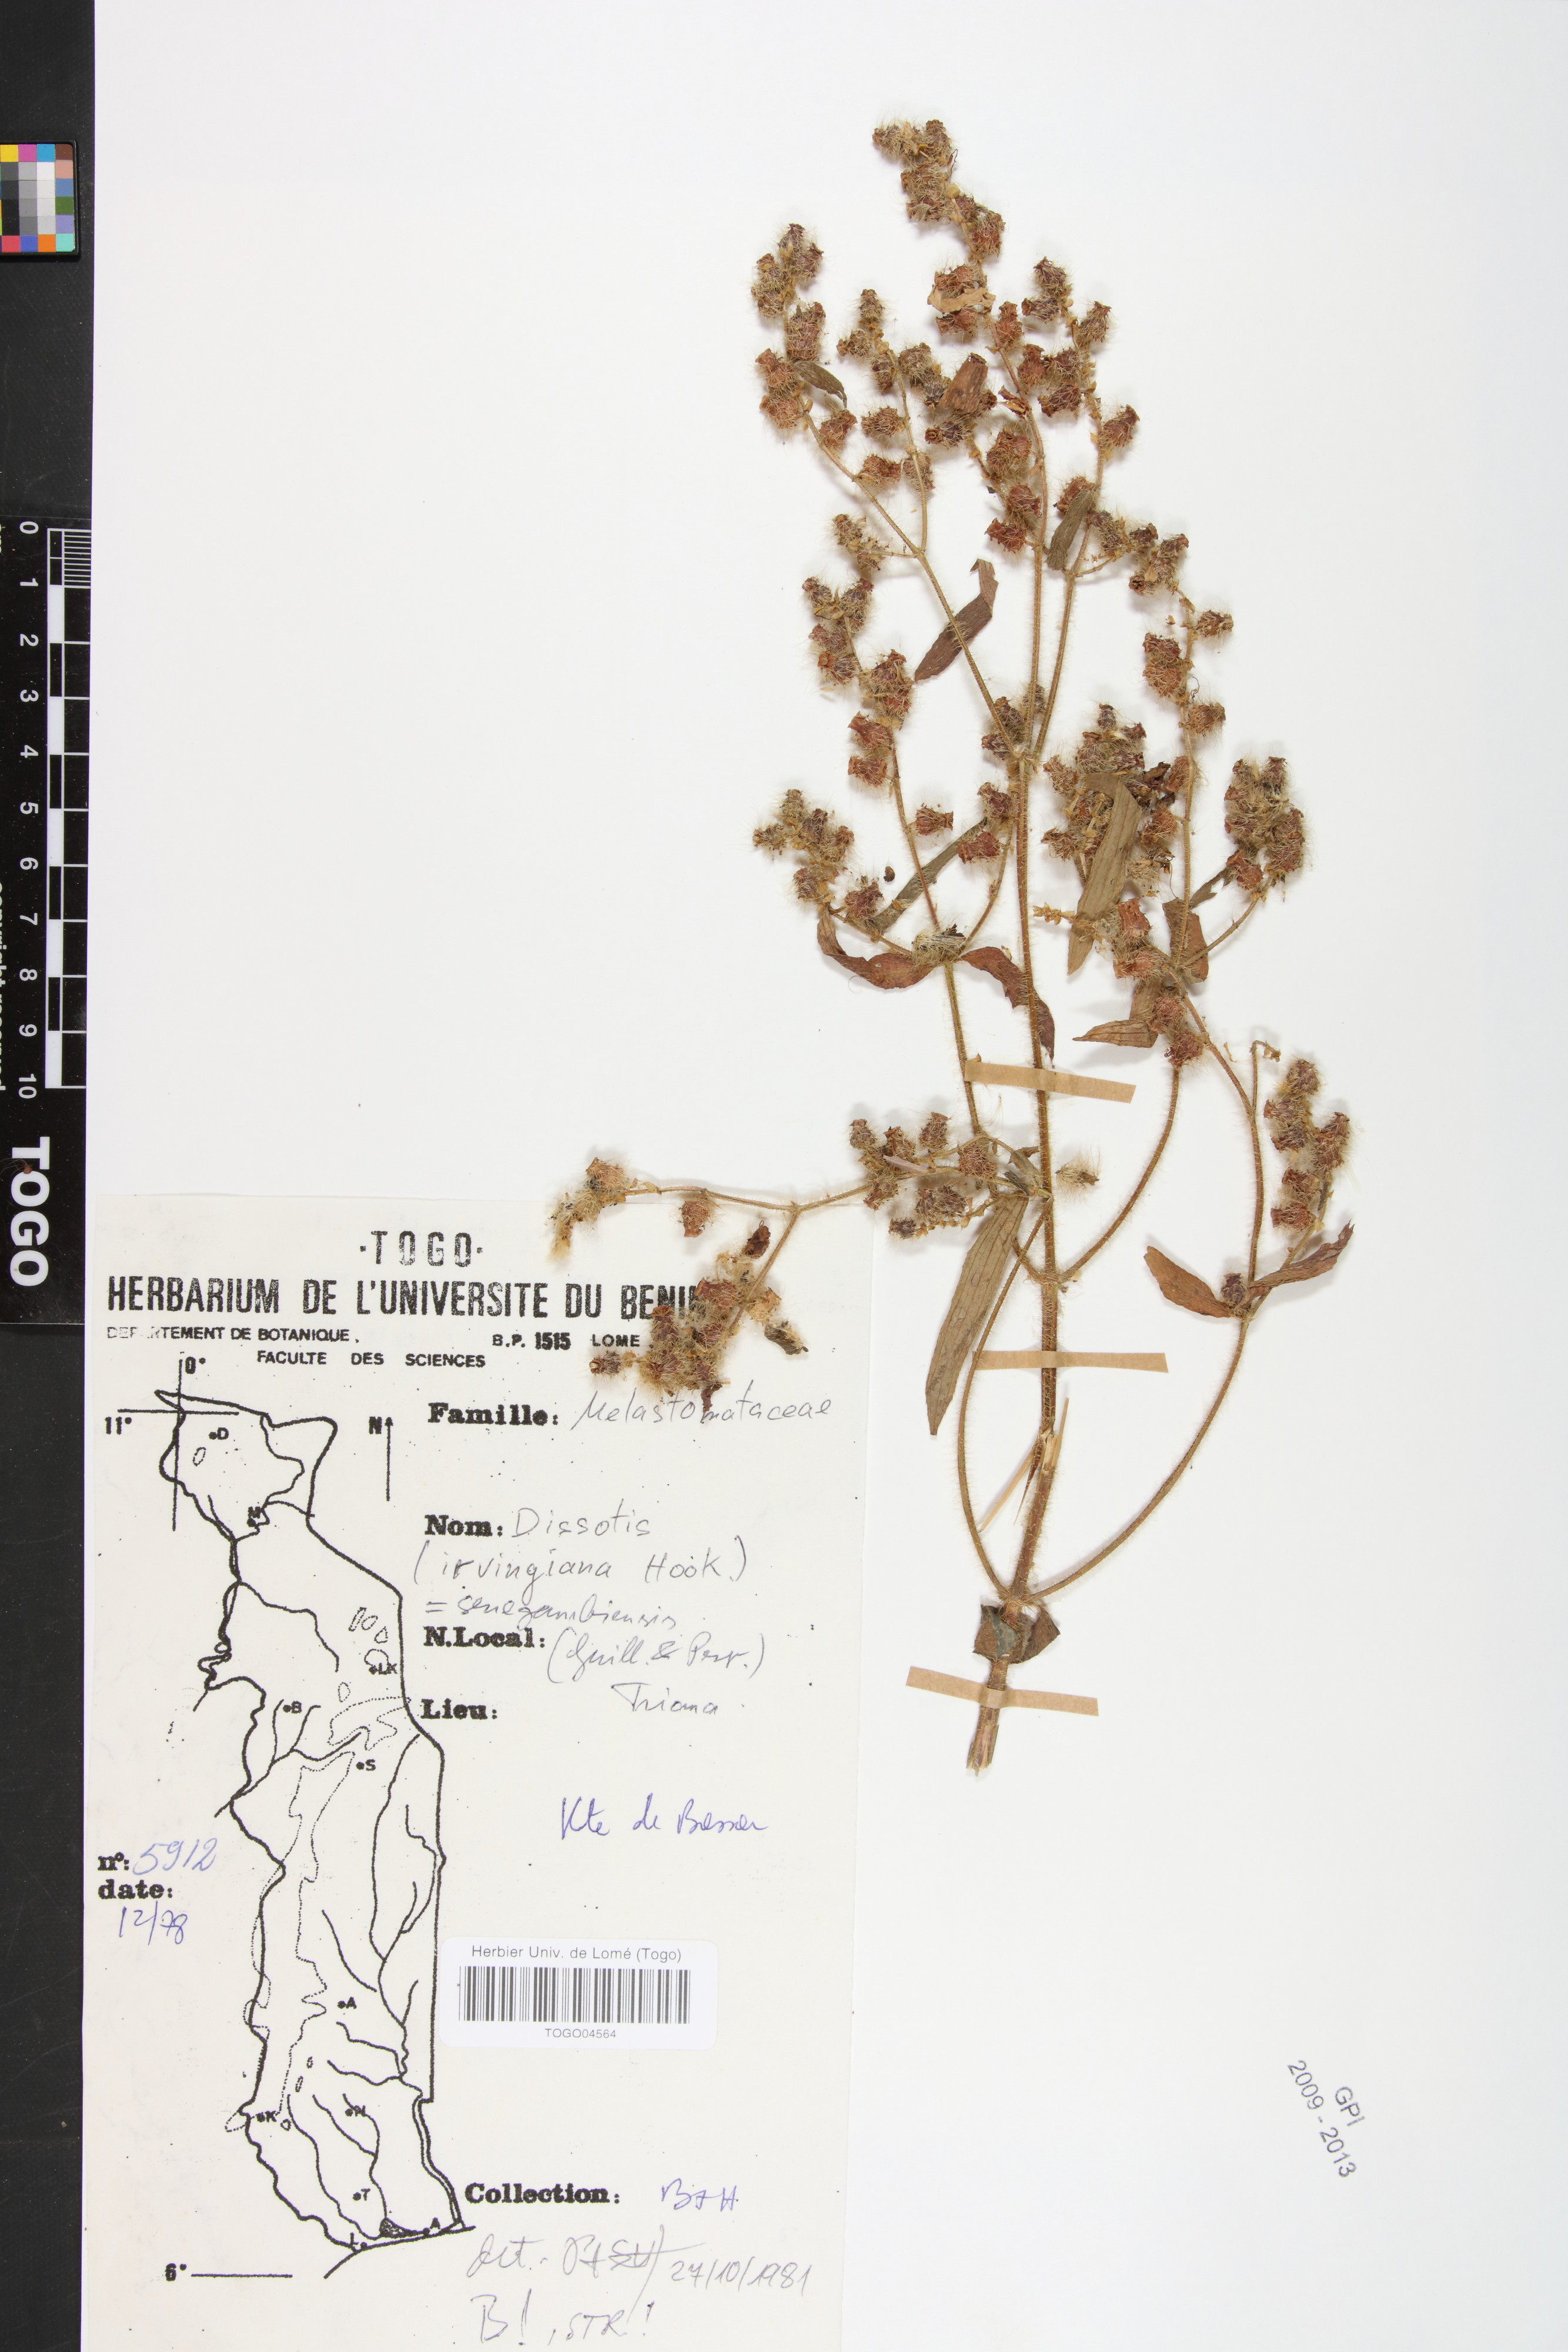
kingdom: Plantae
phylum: Tracheophyta
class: Magnoliopsida
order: Myrtales
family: Melastomataceae
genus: Rosettea
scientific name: Rosettea thollonii
